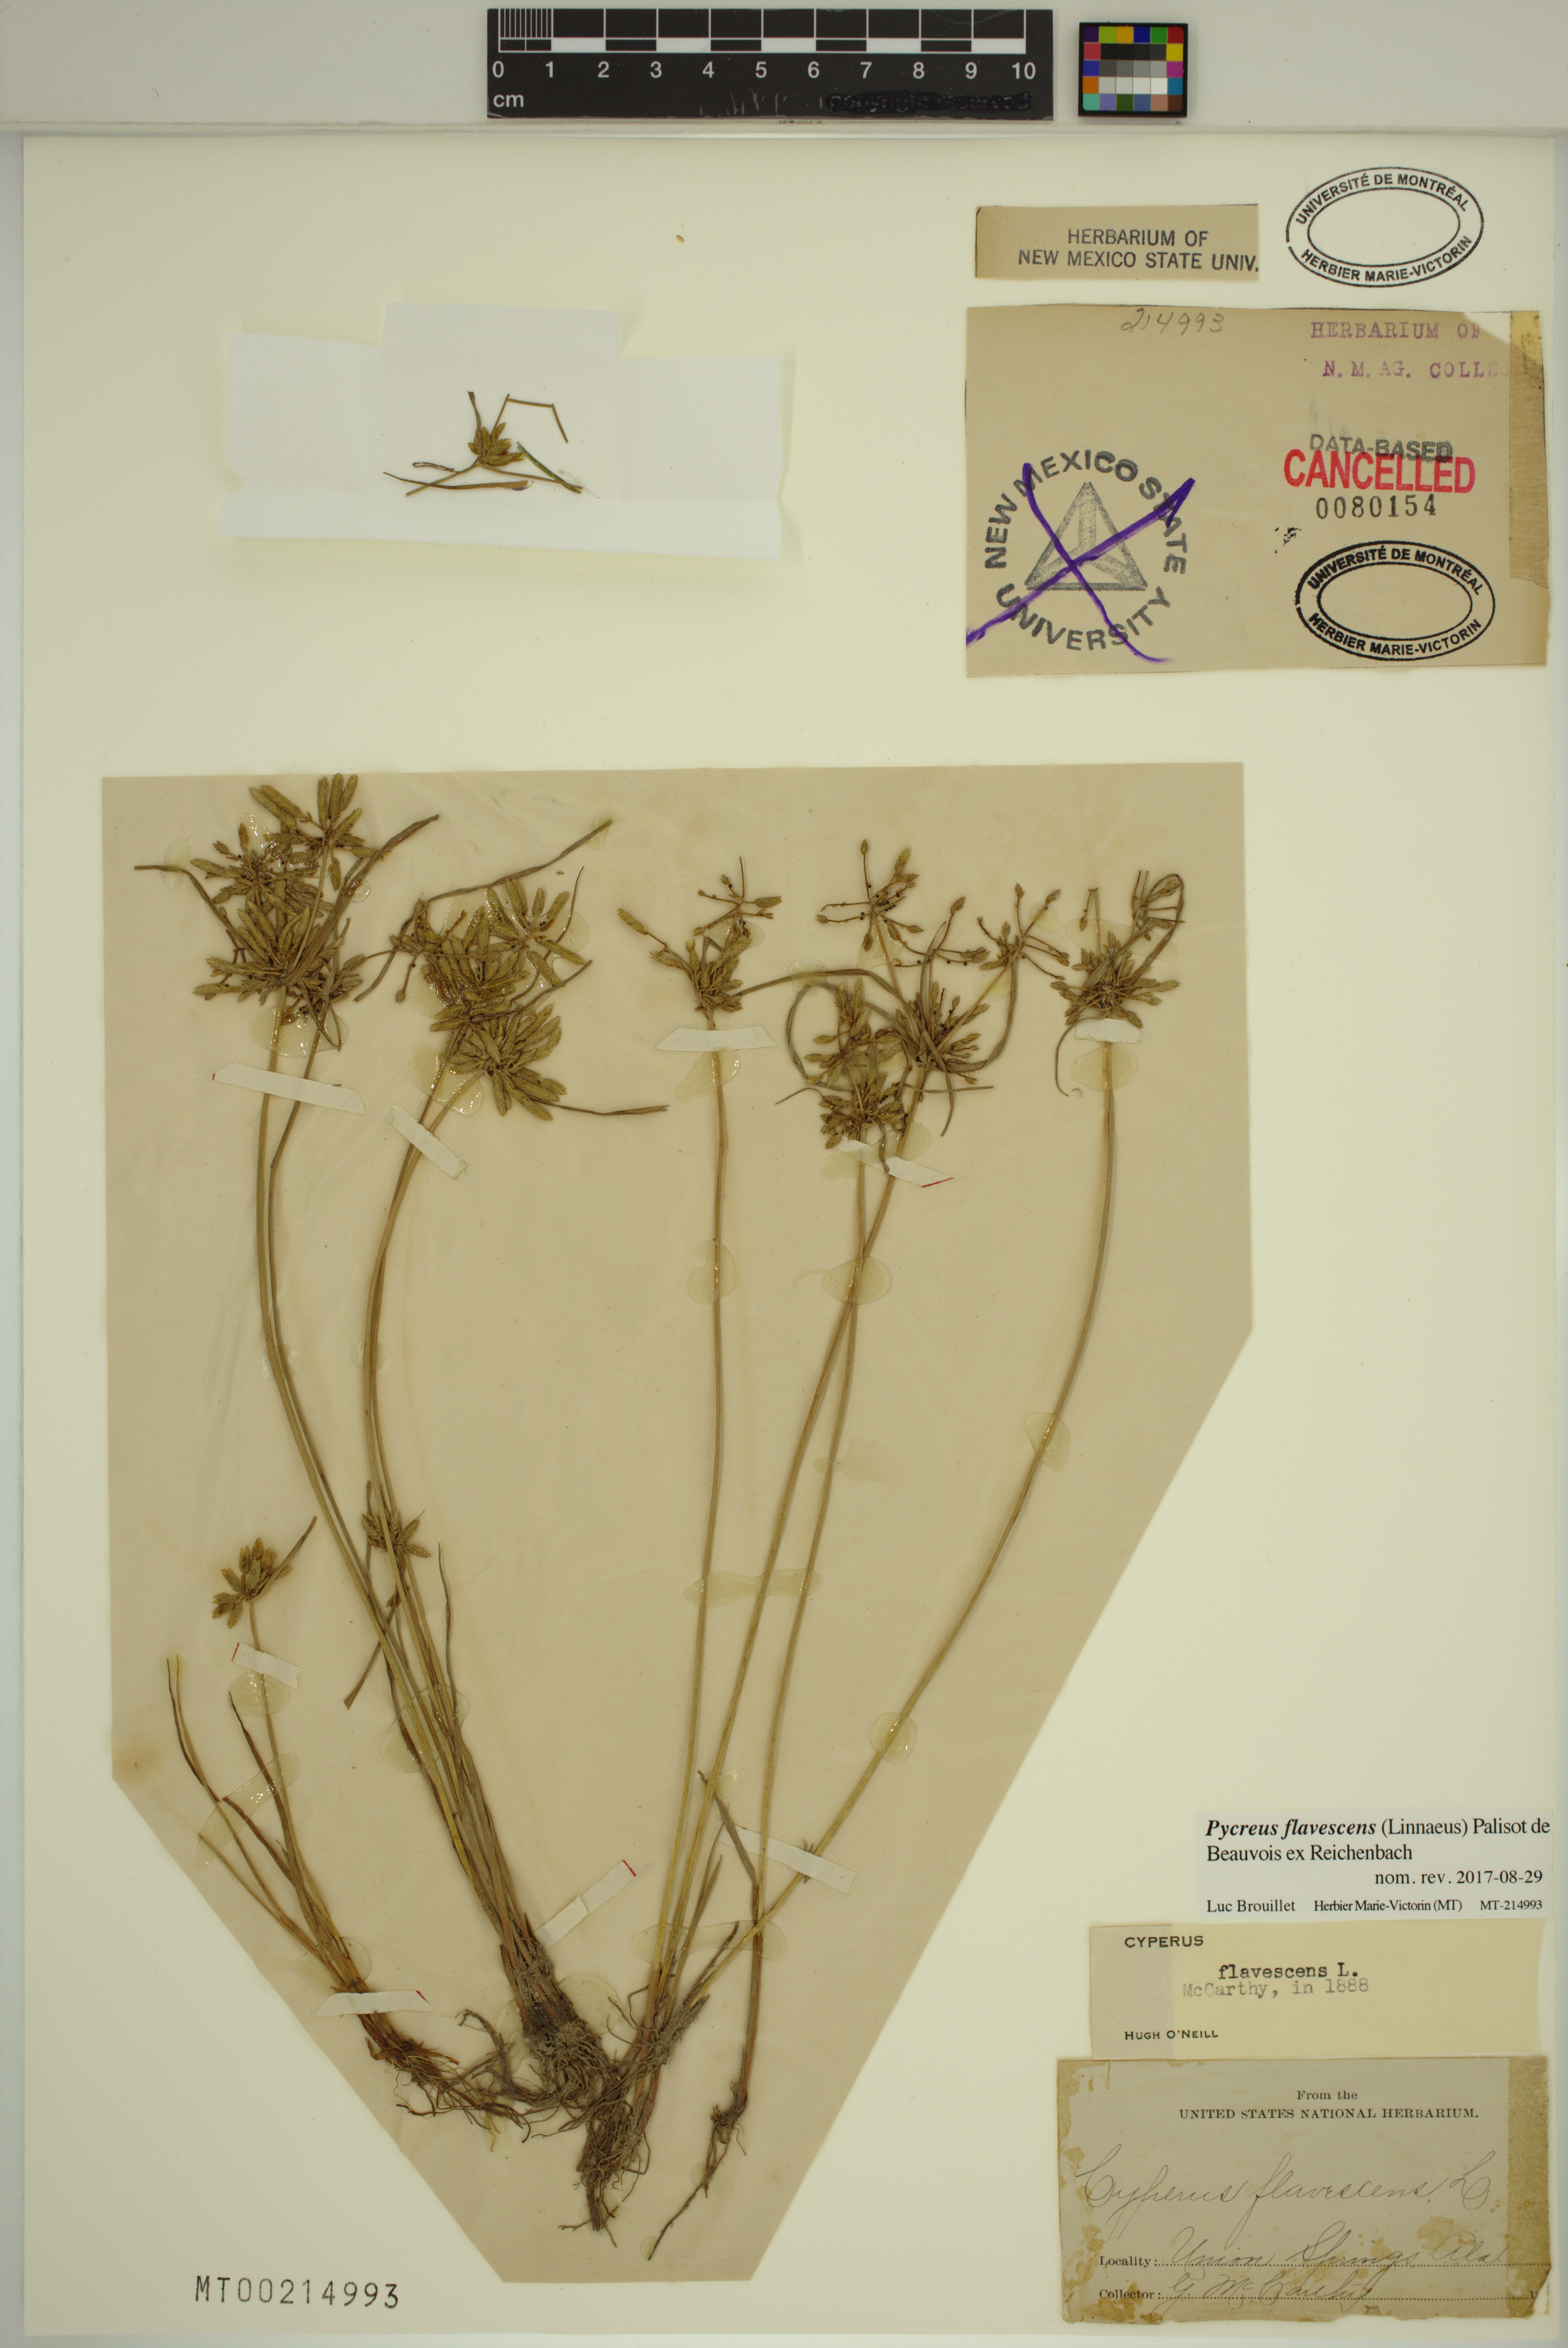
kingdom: Plantae
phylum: Tracheophyta
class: Liliopsida
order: Poales
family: Cyperaceae
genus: Cyperus
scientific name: Cyperus flavescens
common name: Yellow galingale
